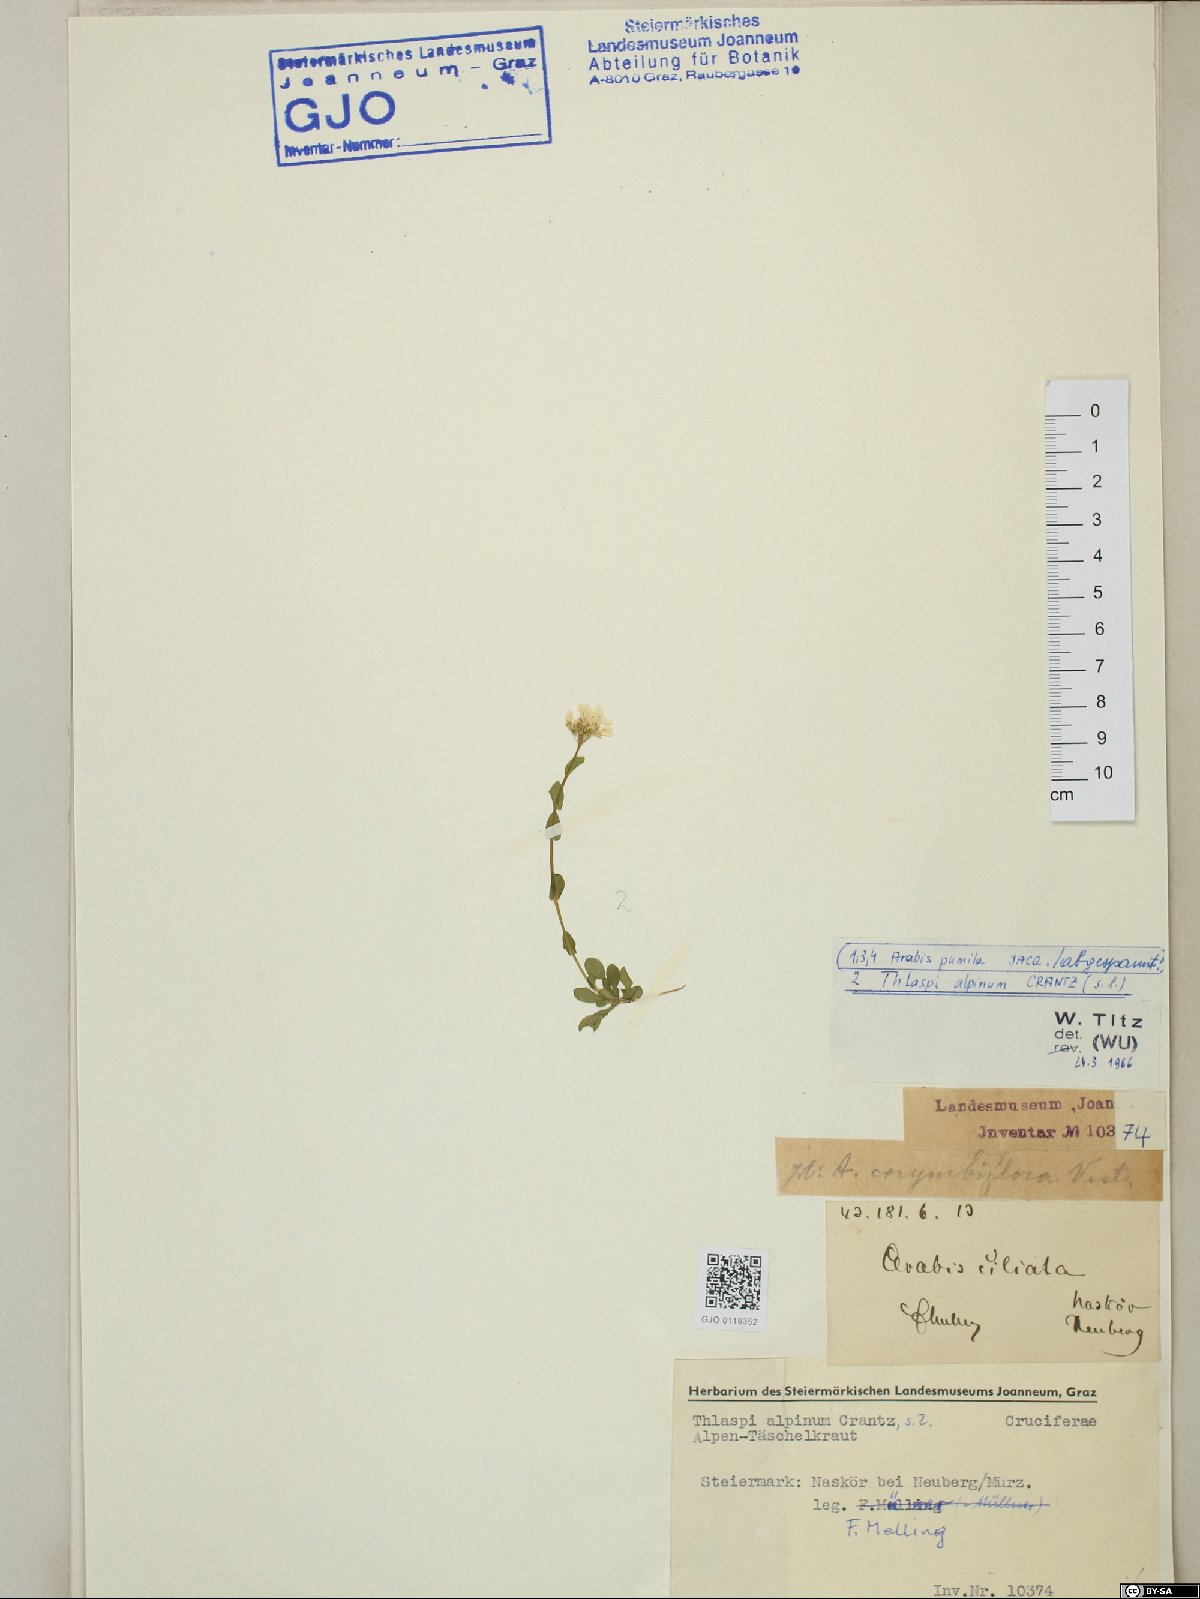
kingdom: Plantae
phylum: Tracheophyta
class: Magnoliopsida
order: Brassicales
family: Brassicaceae
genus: Noccaea
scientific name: Noccaea alpestris
